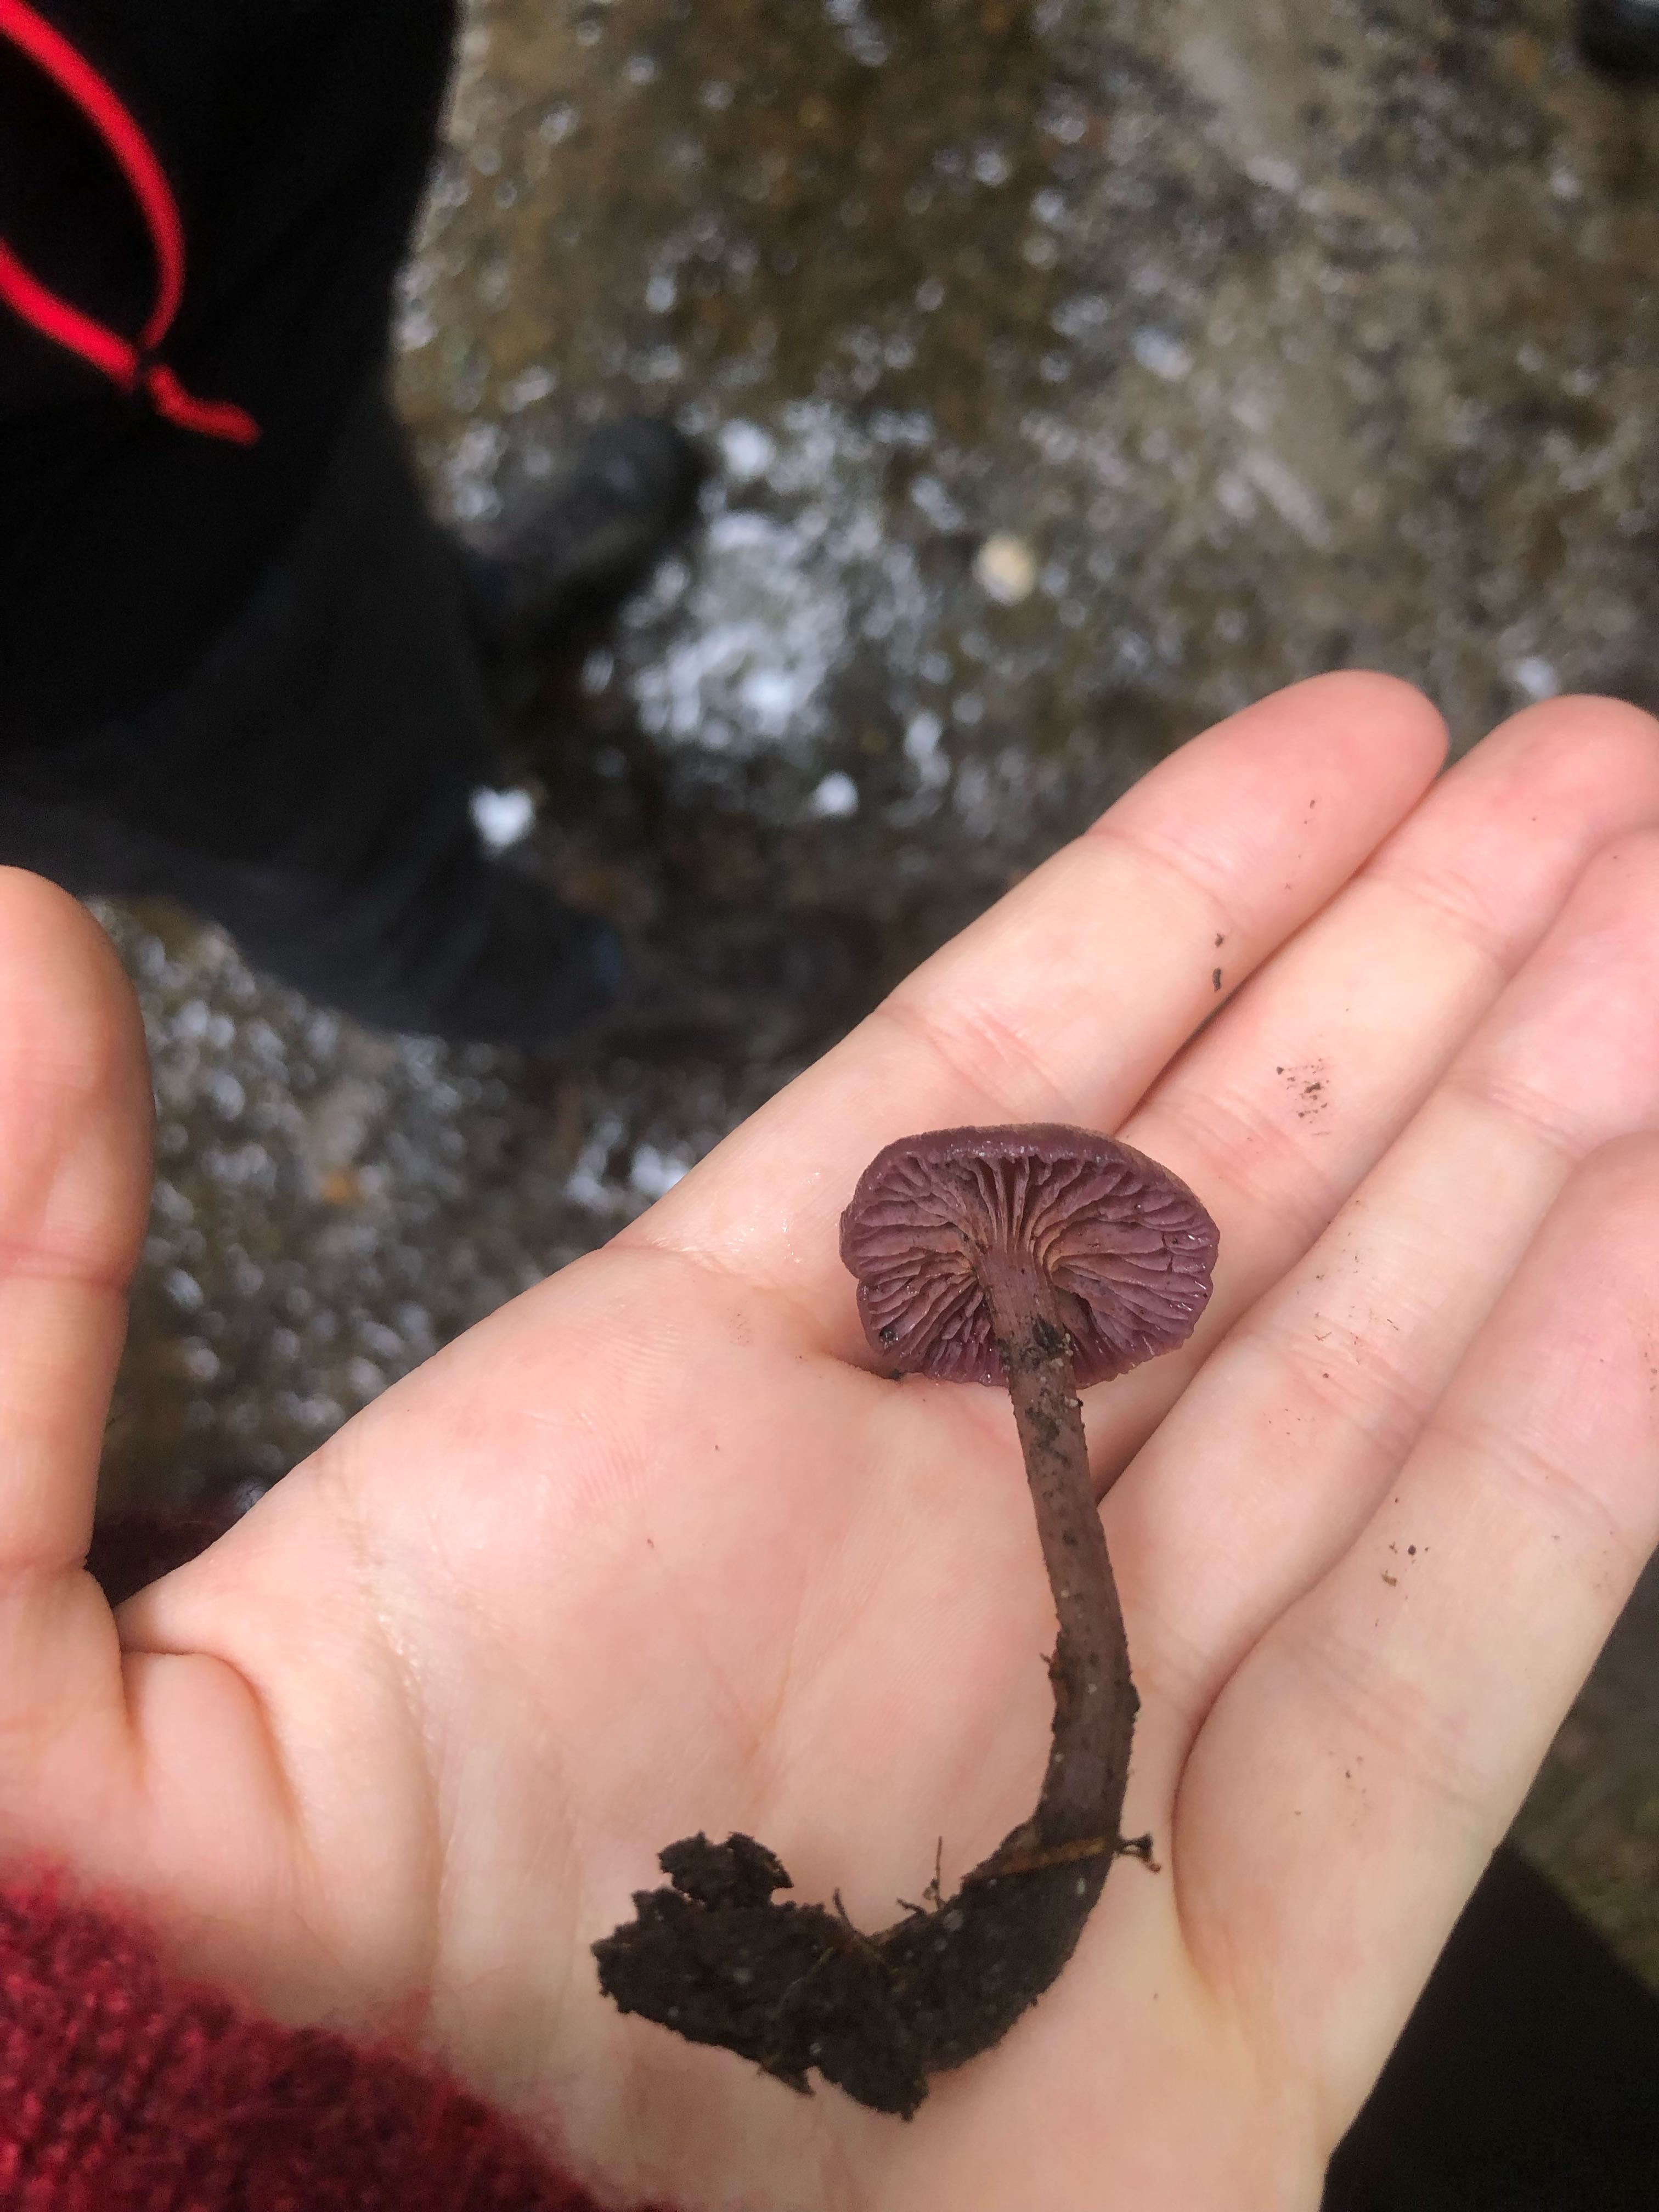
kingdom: Fungi
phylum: Basidiomycota
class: Agaricomycetes
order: Agaricales
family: Hydnangiaceae
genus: Laccaria
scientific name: Laccaria amethystina
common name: violet ametysthat
